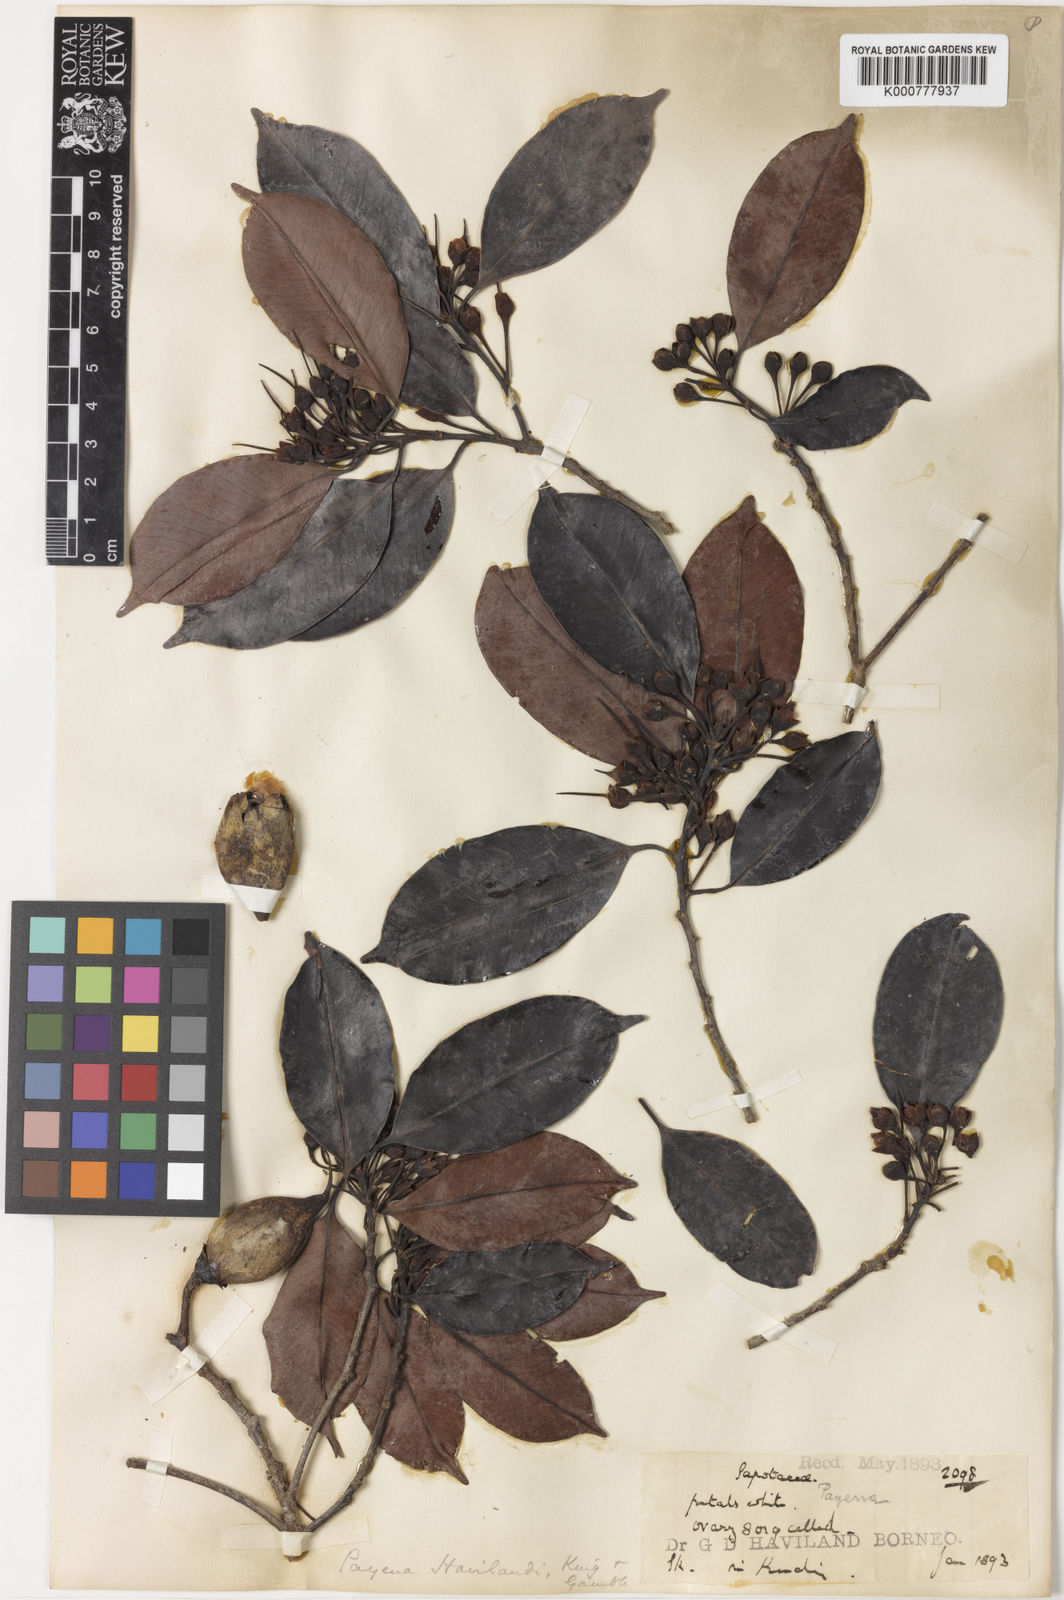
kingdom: Plantae
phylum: Tracheophyta
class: Magnoliopsida
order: Ericales
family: Sapotaceae
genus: Payena
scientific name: Payena obscura
